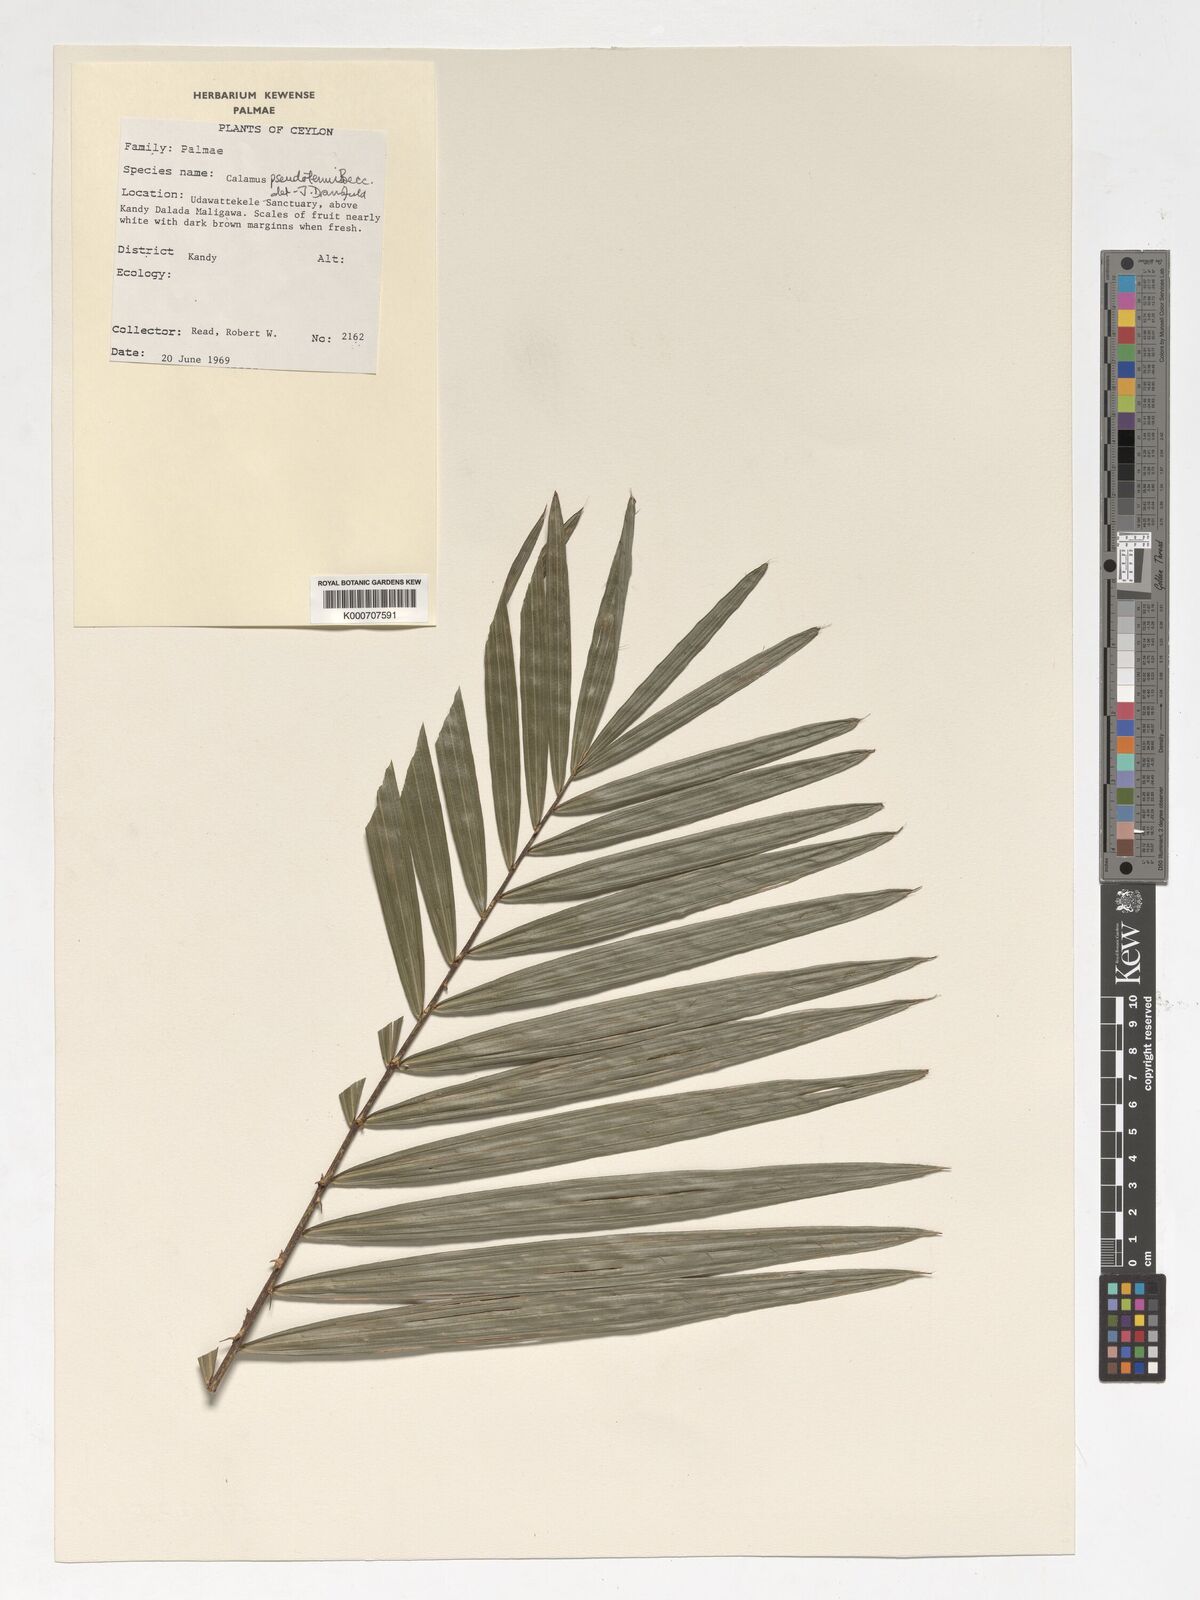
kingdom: Plantae
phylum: Tracheophyta
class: Liliopsida
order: Arecales
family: Arecaceae
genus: Calamus
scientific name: Calamus pseudotenuis
